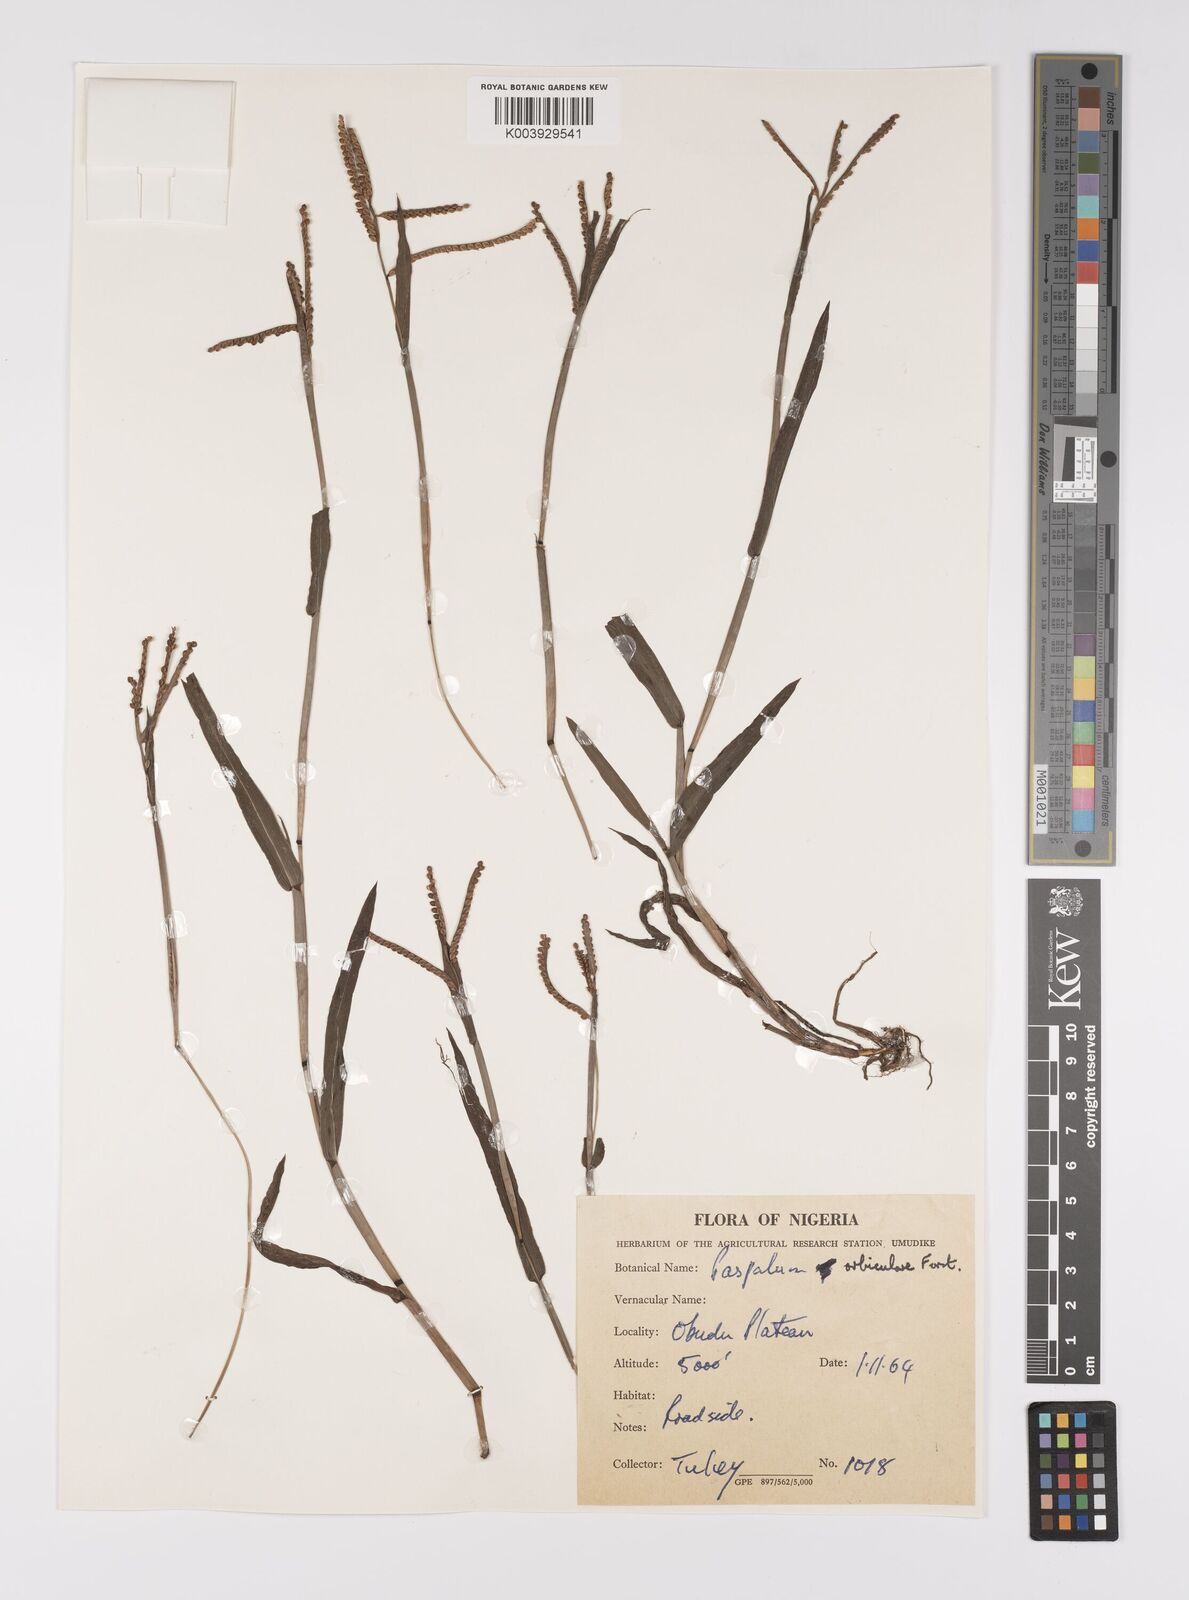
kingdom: Plantae
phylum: Tracheophyta
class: Liliopsida
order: Poales
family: Poaceae
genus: Paspalum
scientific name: Paspalum scrobiculatum
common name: Kodo millet
